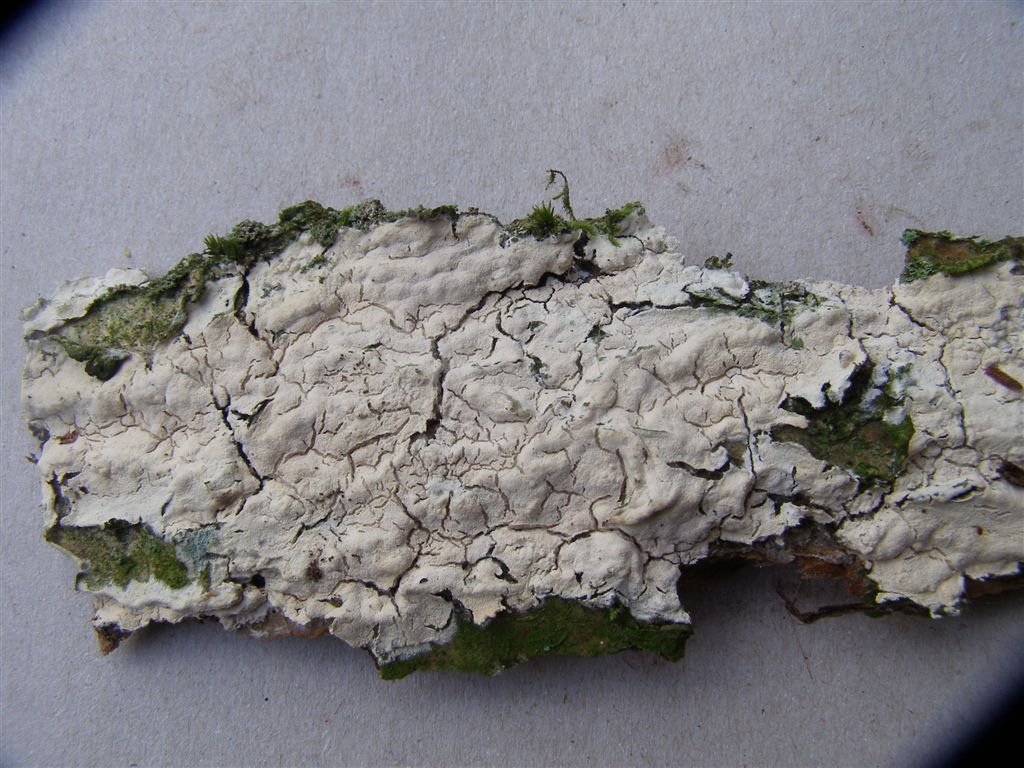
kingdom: Fungi
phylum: Basidiomycota
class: Agaricomycetes
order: Polyporales
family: Hyphodermataceae
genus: Hyphoderma
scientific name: Hyphoderma setigerum
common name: håret kalkskind
